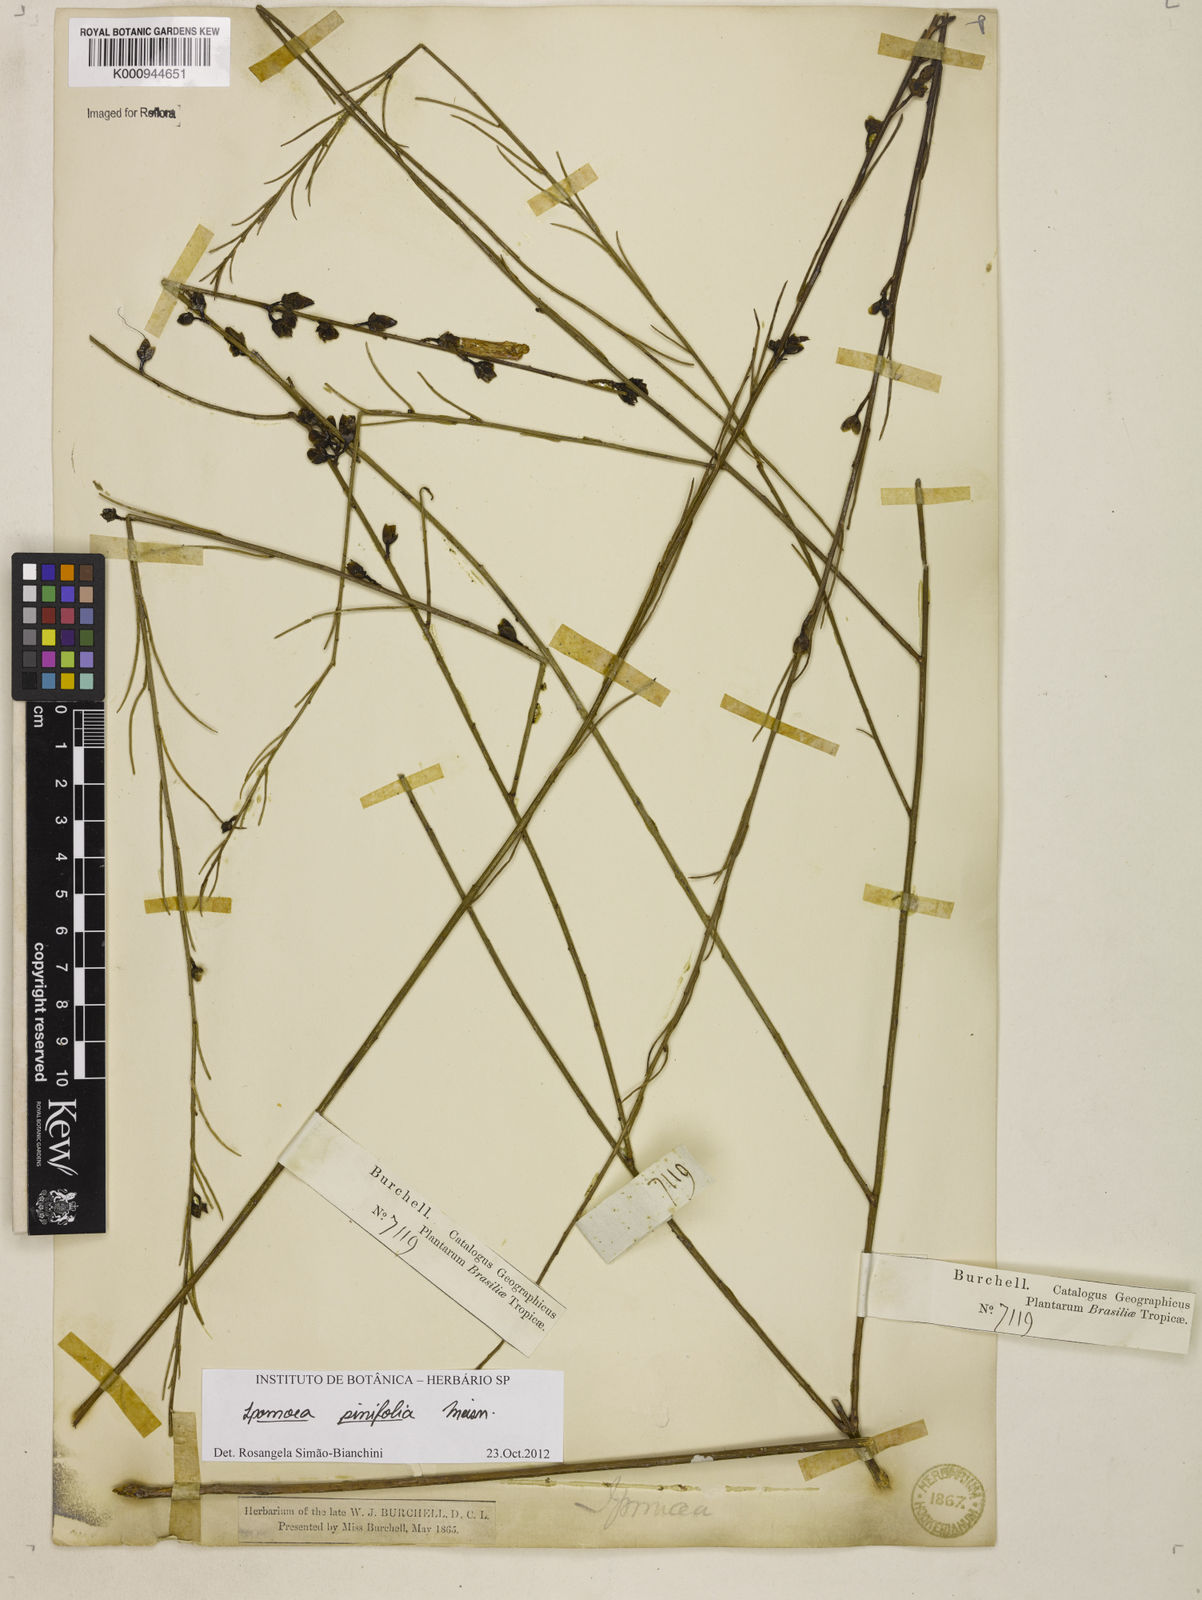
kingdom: Plantae
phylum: Tracheophyta
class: Magnoliopsida
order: Solanales
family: Convolvulaceae
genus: Ipomoea
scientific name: Ipomoea pinifolia
